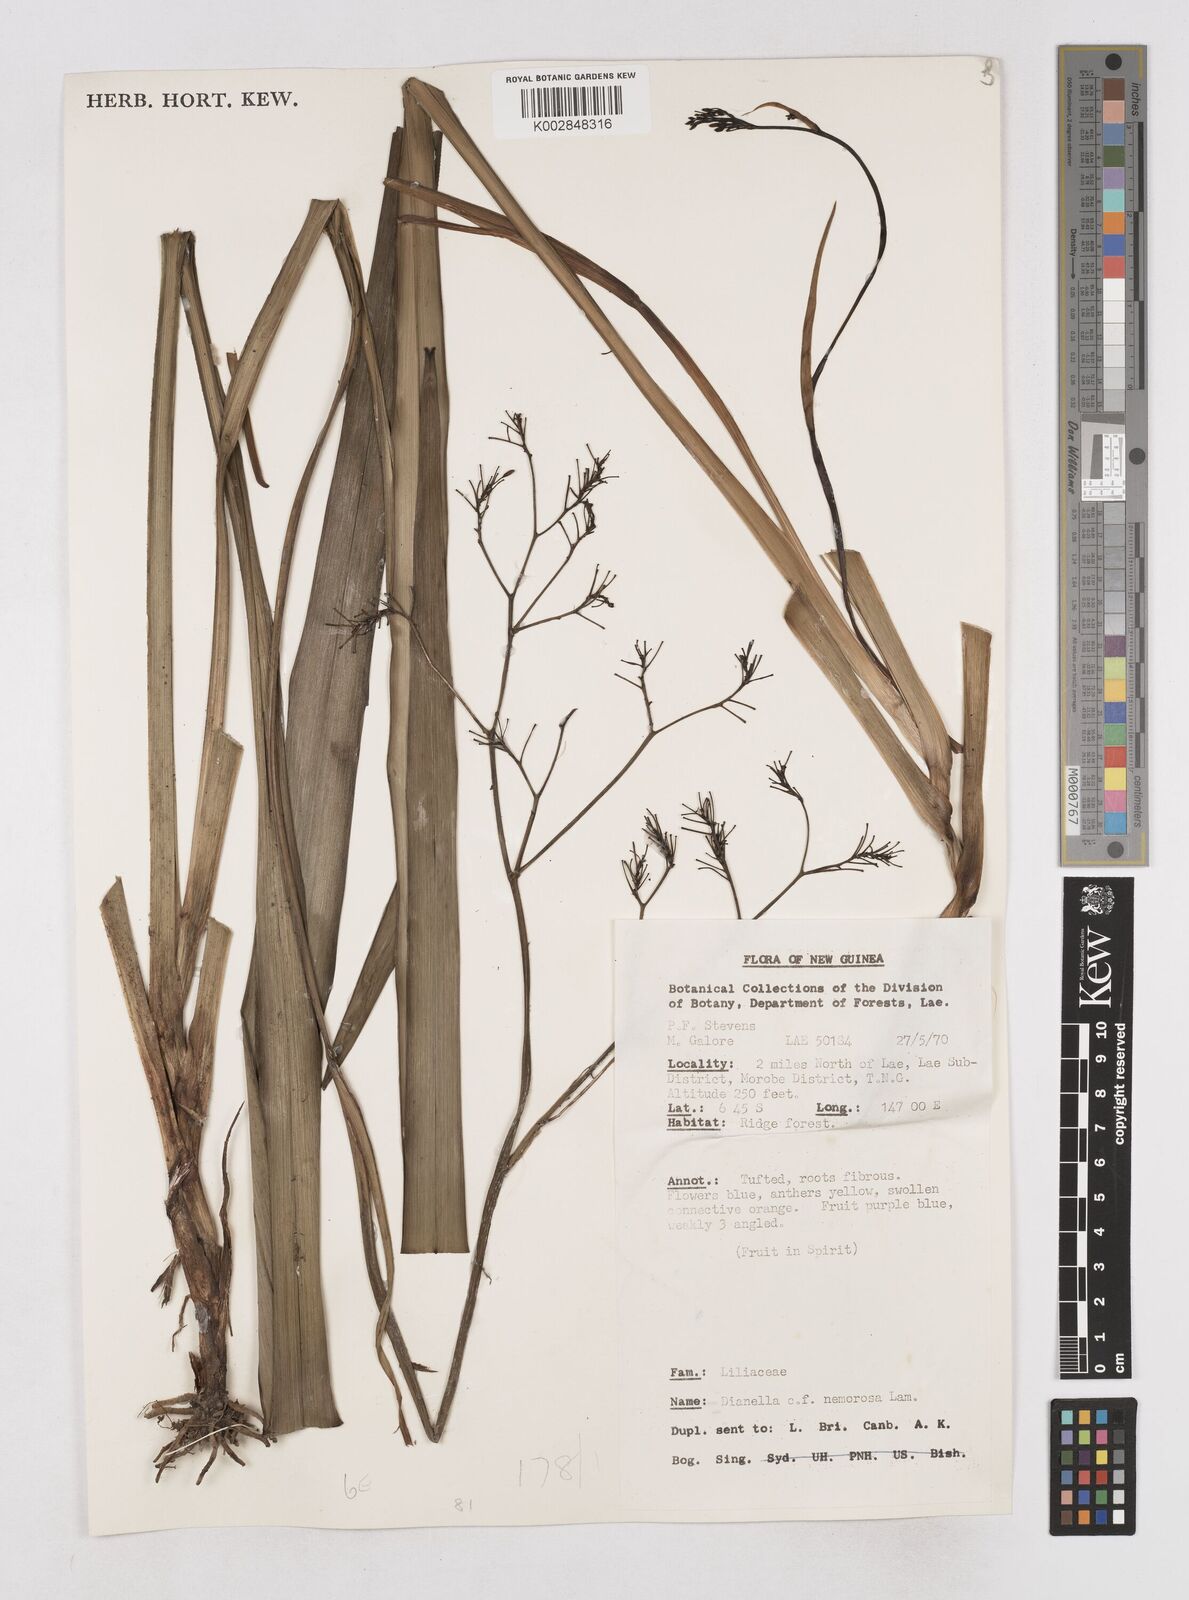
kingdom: Plantae
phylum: Tracheophyta
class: Liliopsida
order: Asparagales
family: Asphodelaceae
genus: Dianella
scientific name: Dianella ensifolia
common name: New zealand lilyplant
